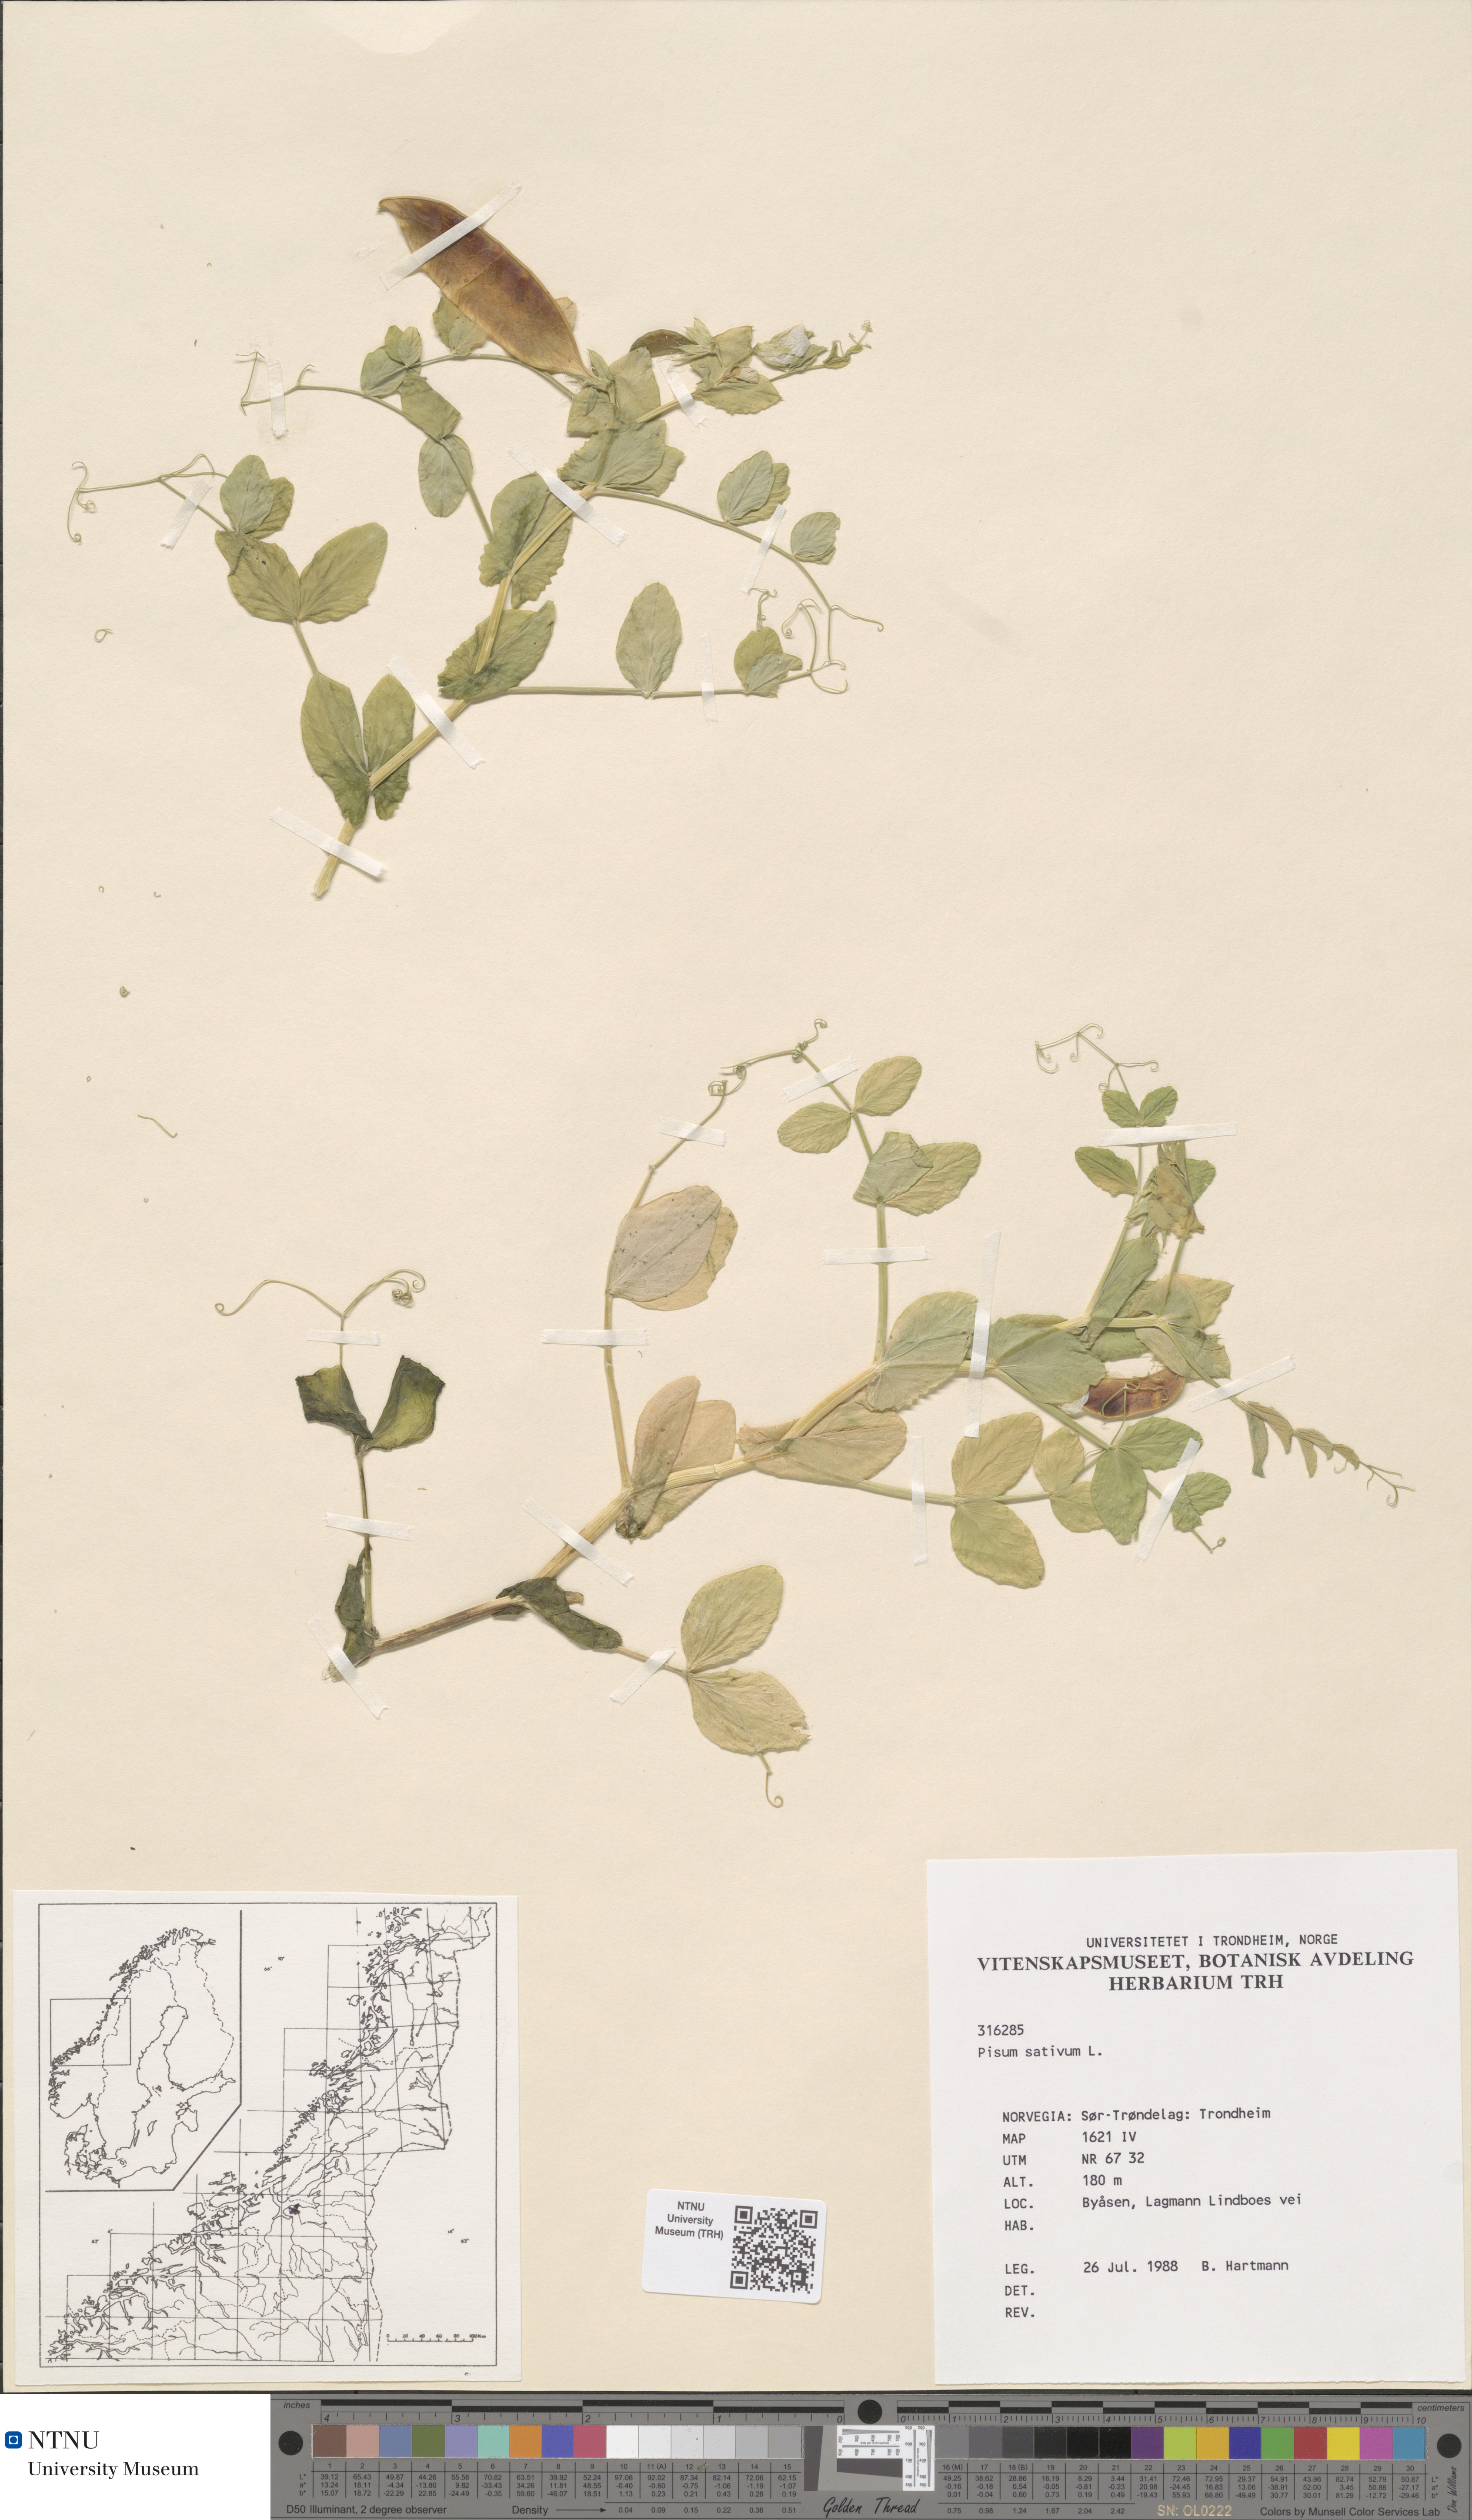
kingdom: Plantae
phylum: Tracheophyta
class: Magnoliopsida
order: Fabales
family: Fabaceae
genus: Lathyrus
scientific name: Lathyrus oleraceus
